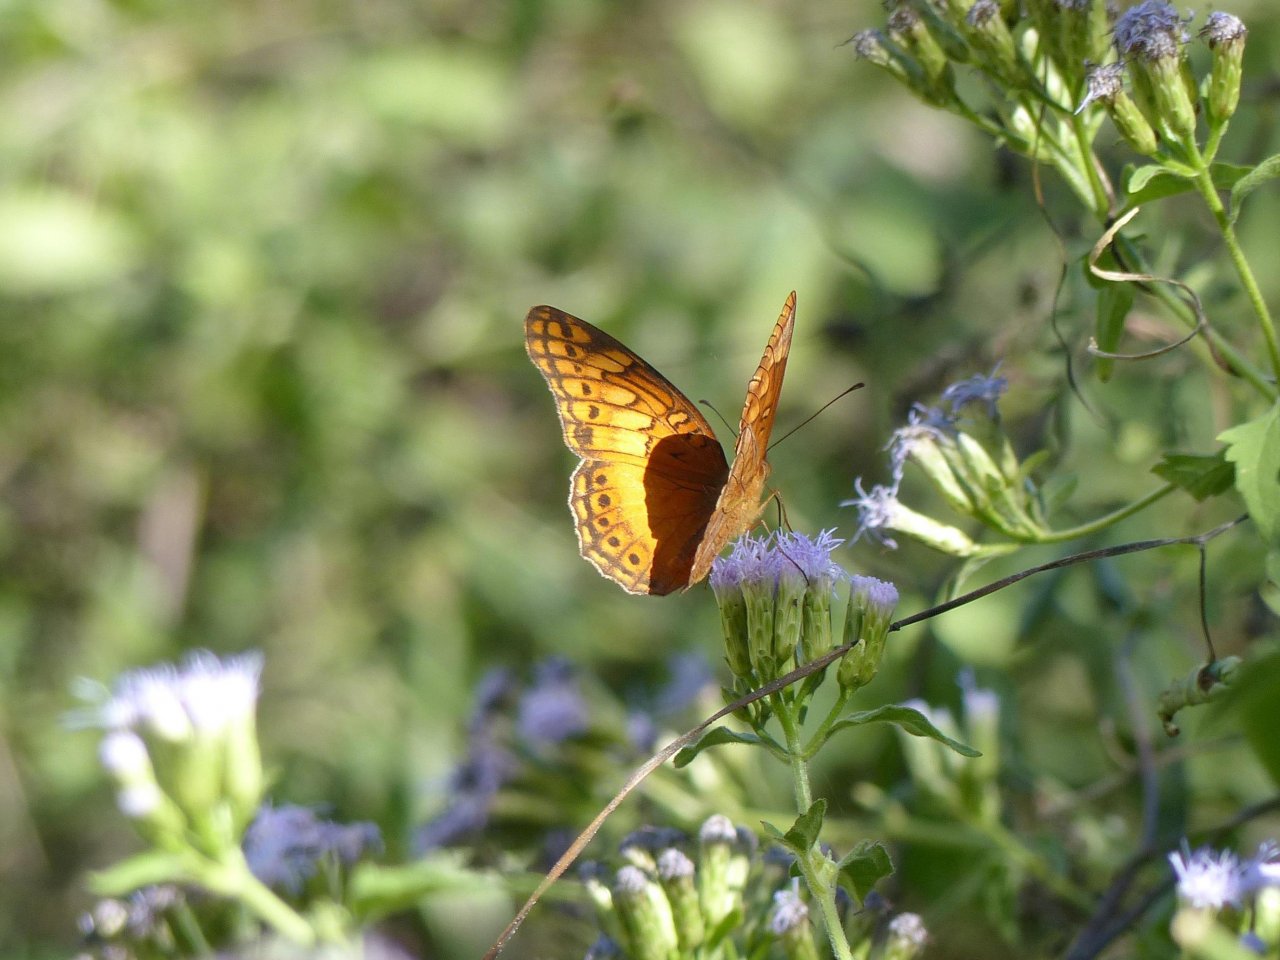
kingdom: Animalia
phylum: Arthropoda
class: Insecta
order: Lepidoptera
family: Nymphalidae
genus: Euptoieta
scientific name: Euptoieta hegesia
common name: Mexican Fritillary
